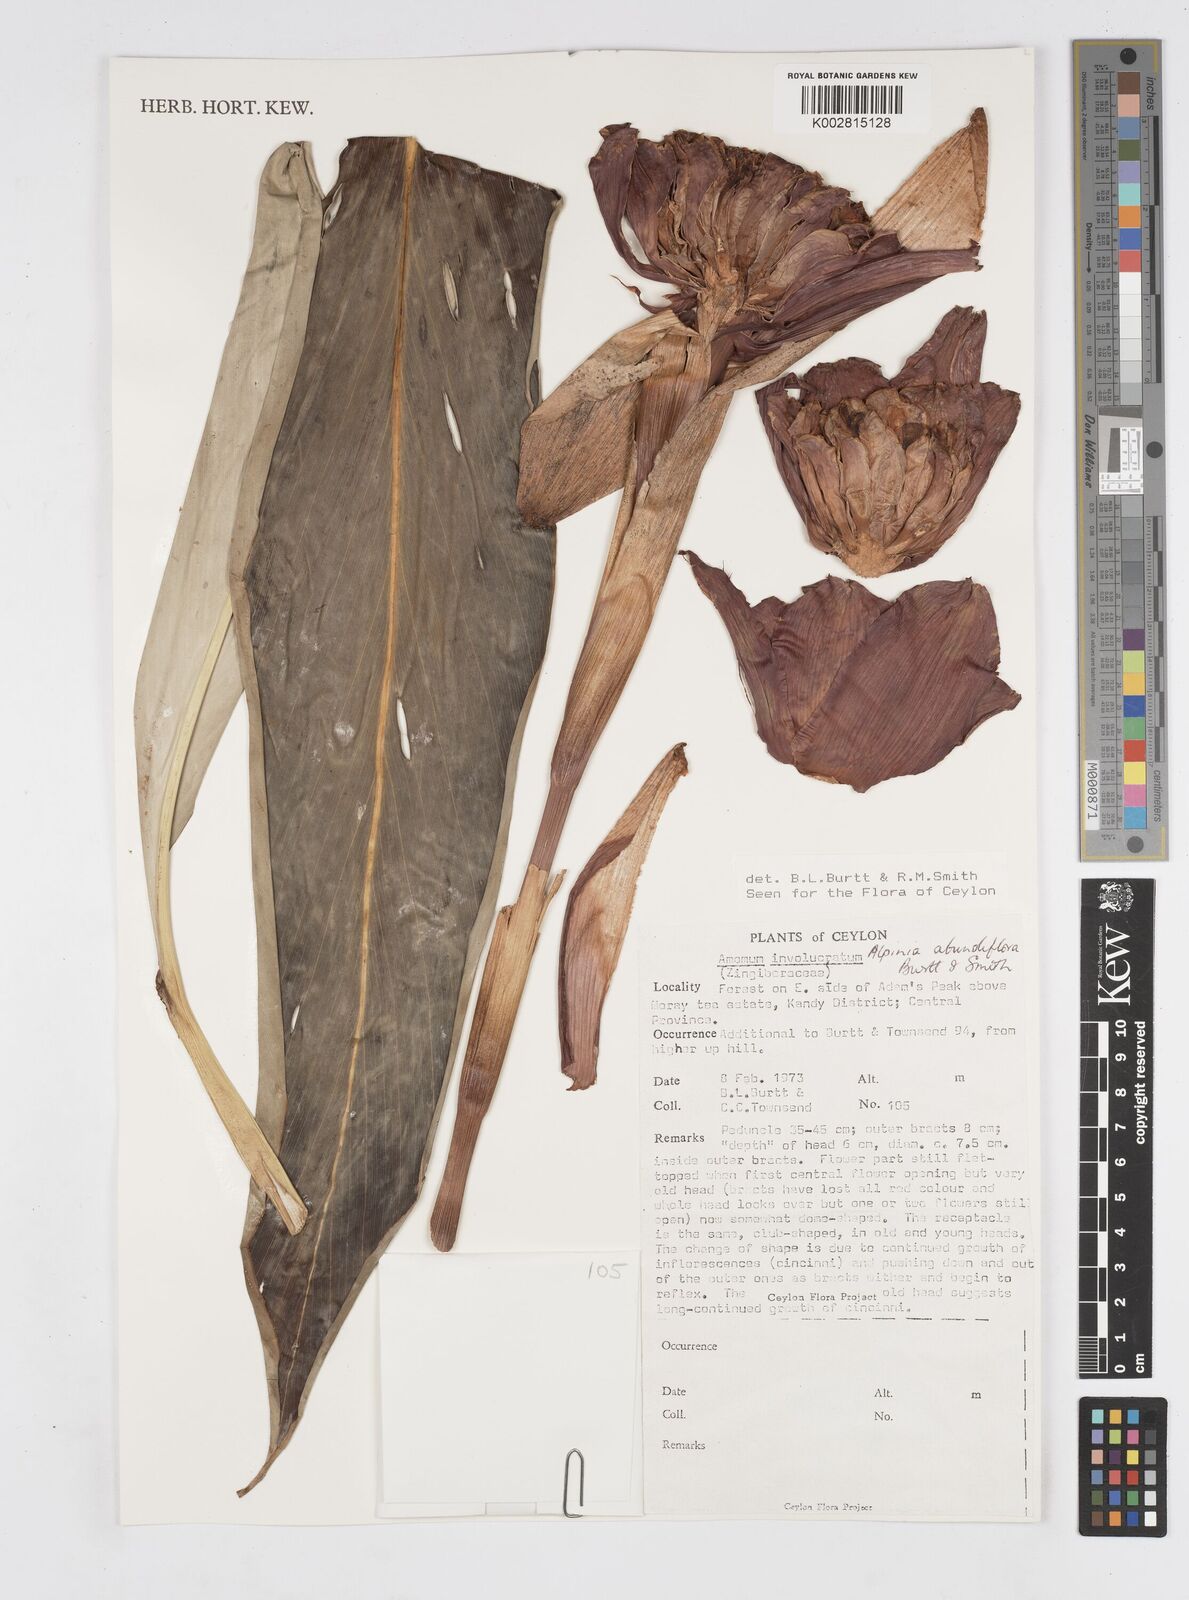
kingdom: Plantae
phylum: Tracheophyta
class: Liliopsida
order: Zingiberales
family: Zingiberaceae
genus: Alpinia
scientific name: Alpinia abundiflora
